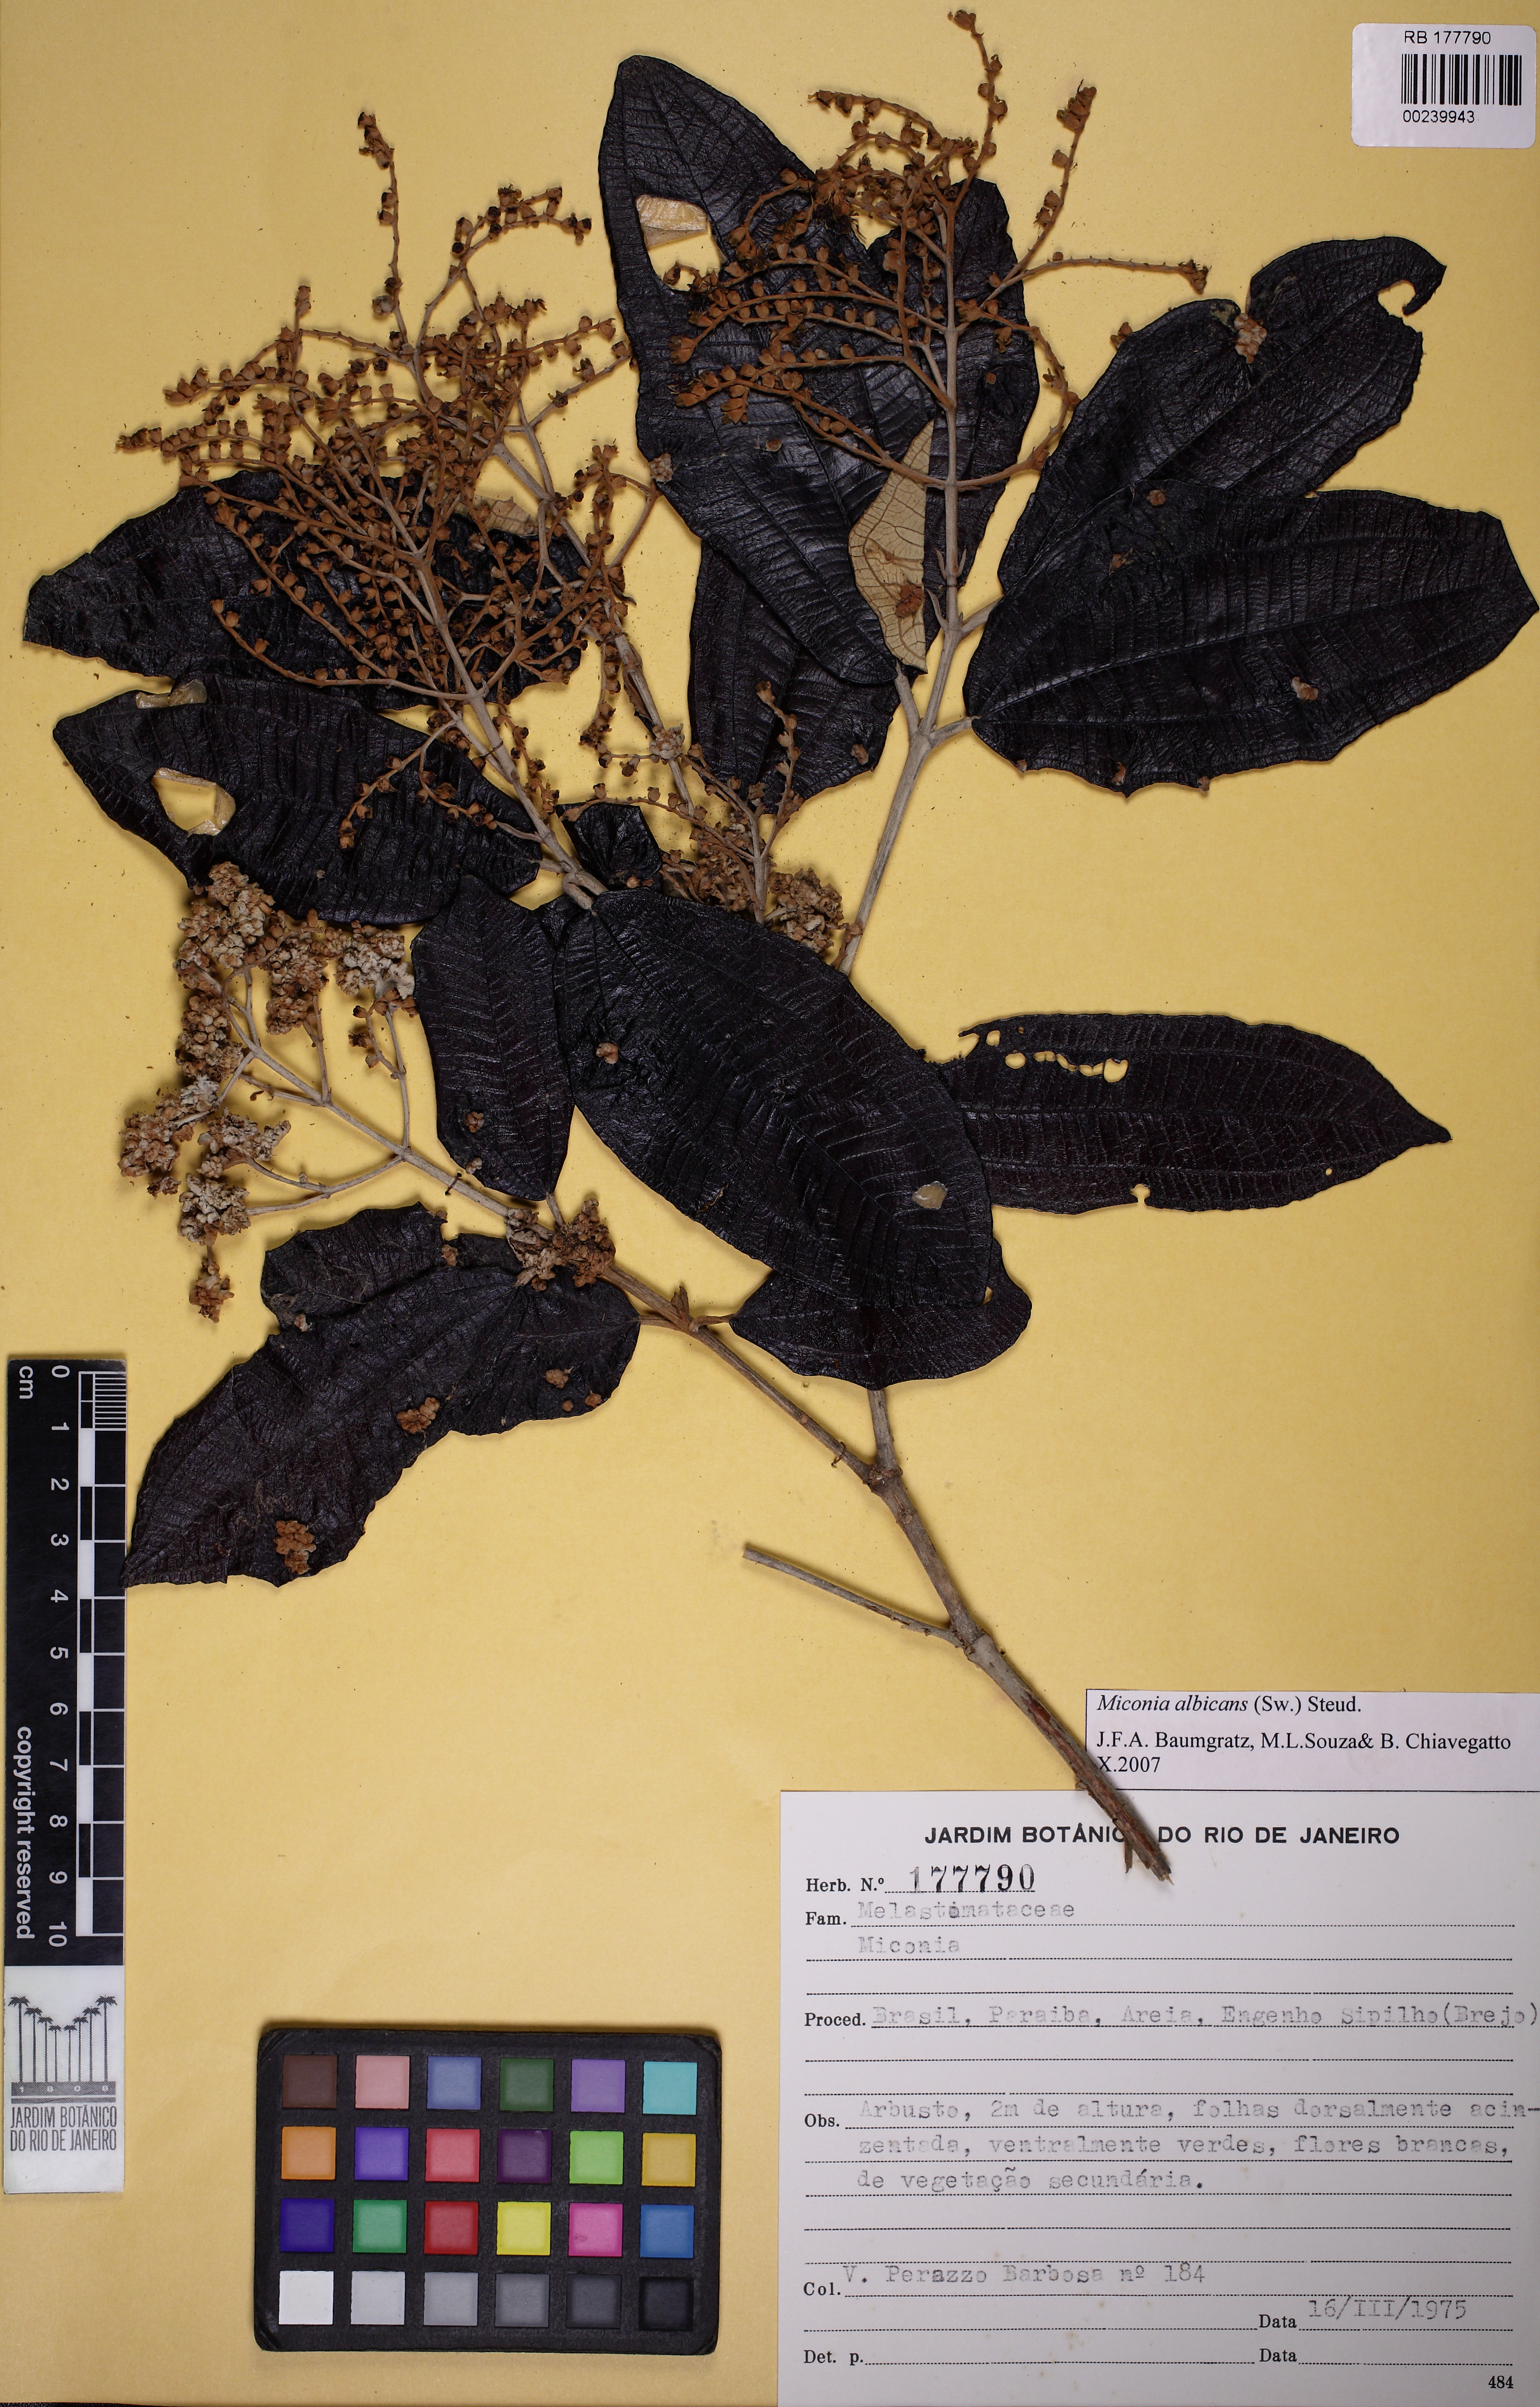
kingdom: Plantae
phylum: Tracheophyta
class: Magnoliopsida
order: Myrtales
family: Melastomataceae
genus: Miconia
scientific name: Miconia albicans
